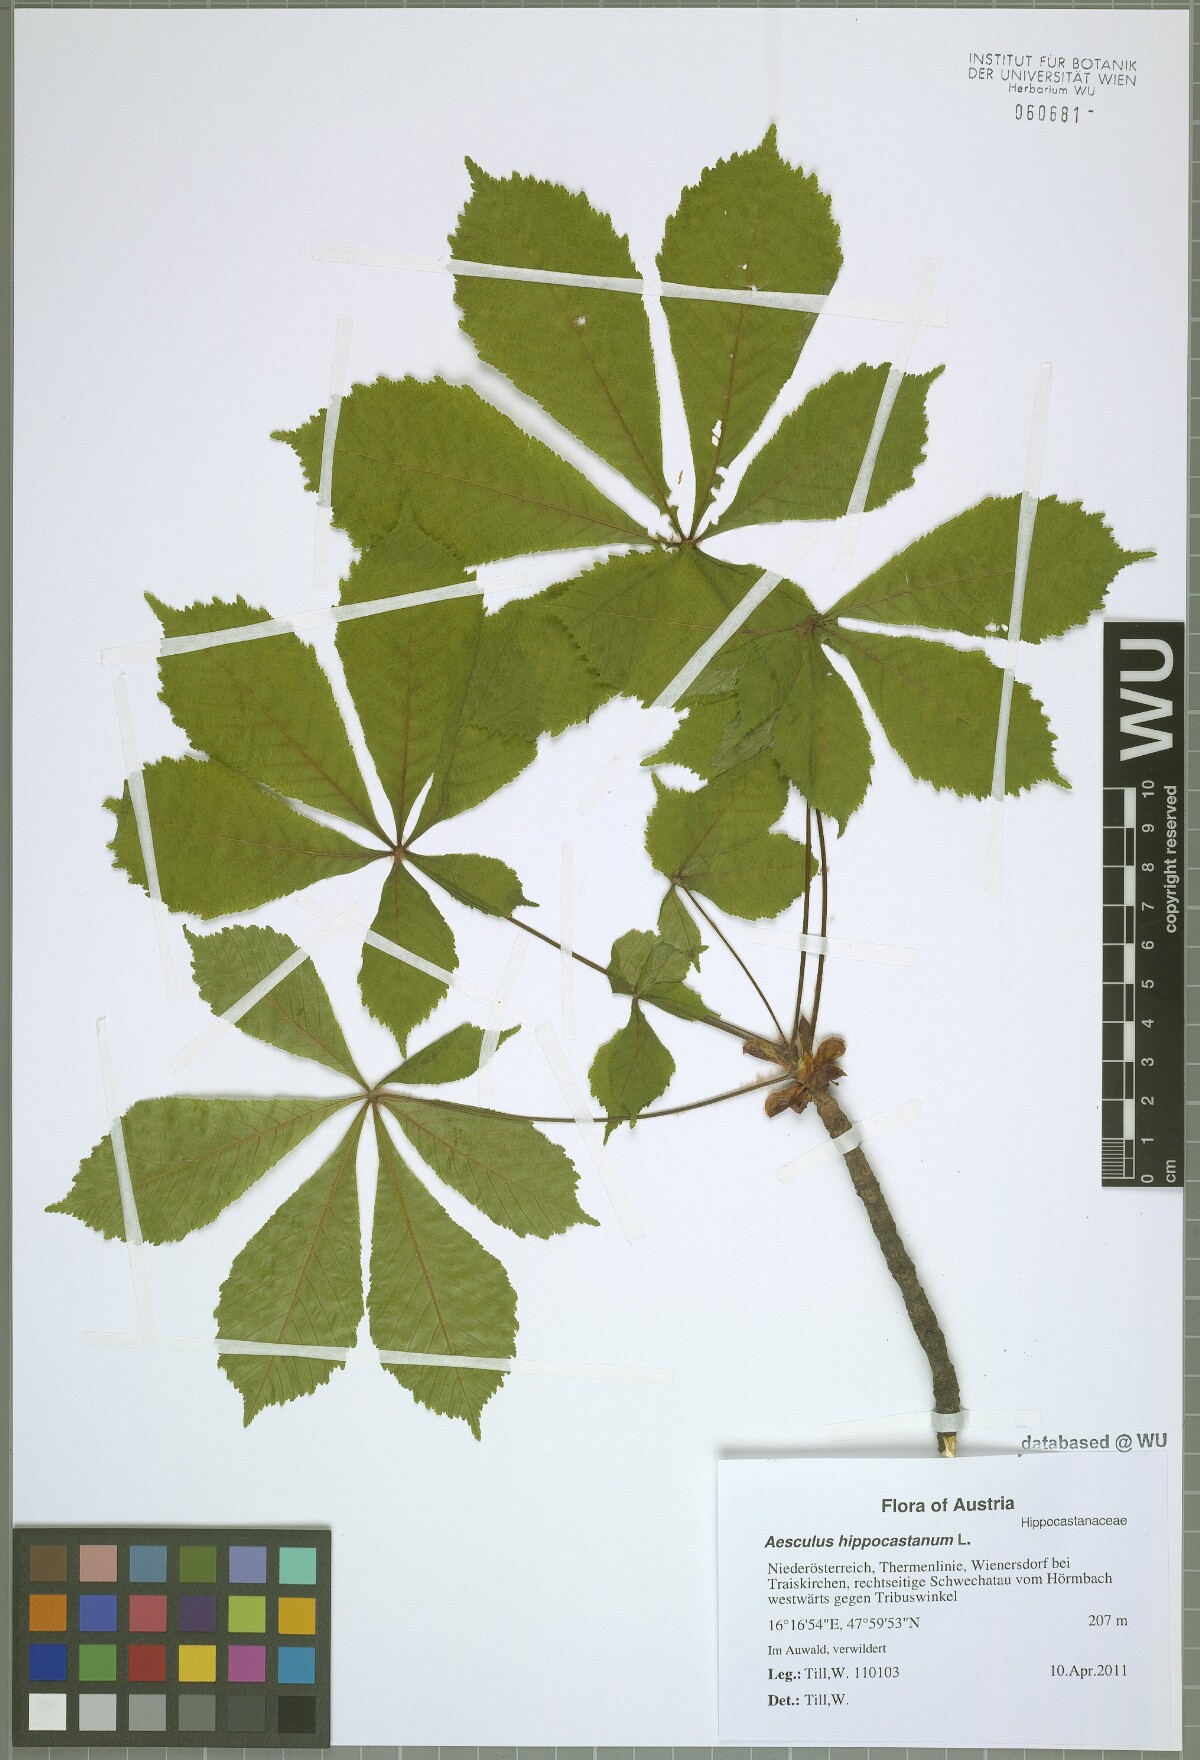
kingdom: Plantae
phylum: Tracheophyta
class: Magnoliopsida
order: Sapindales
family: Sapindaceae
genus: Aesculus
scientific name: Aesculus hippocastanum
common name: Horse-chestnut
